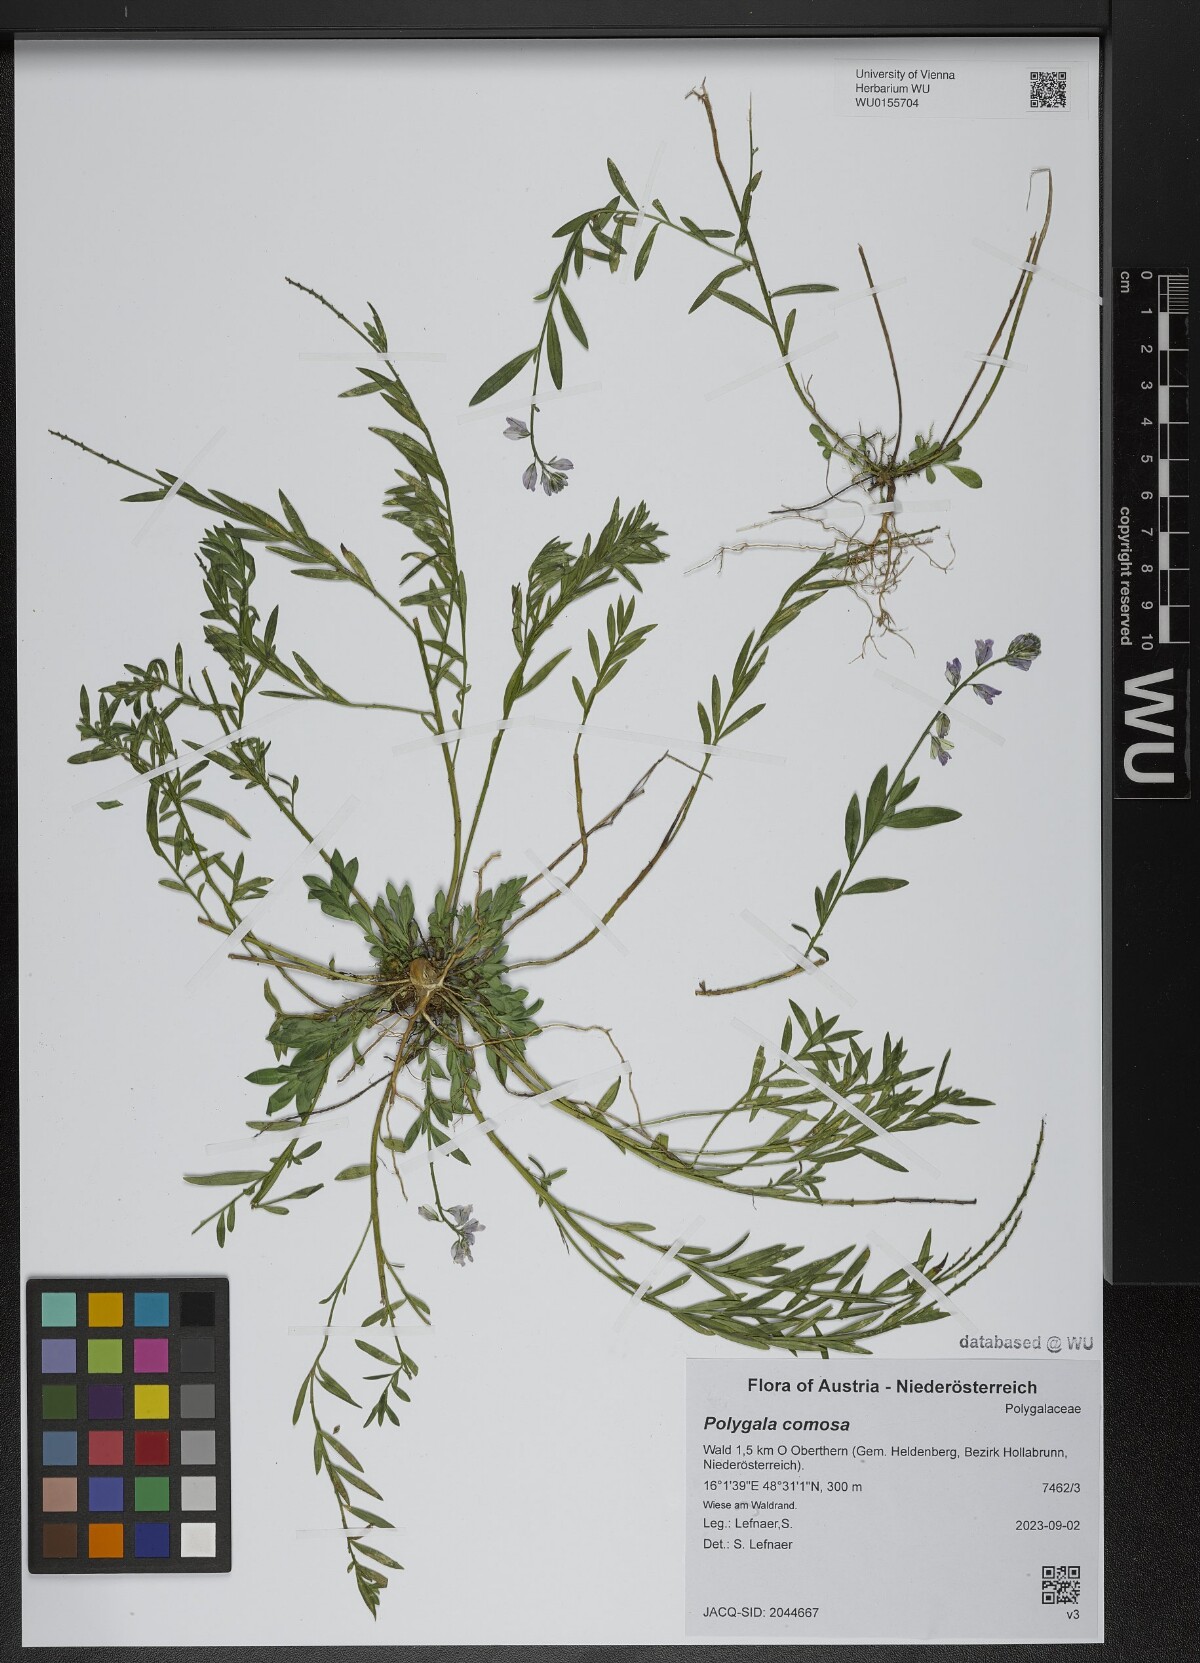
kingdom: Plantae
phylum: Tracheophyta
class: Magnoliopsida
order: Fabales
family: Polygalaceae
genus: Polygala
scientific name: Polygala comosa
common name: Tufted milkwort
